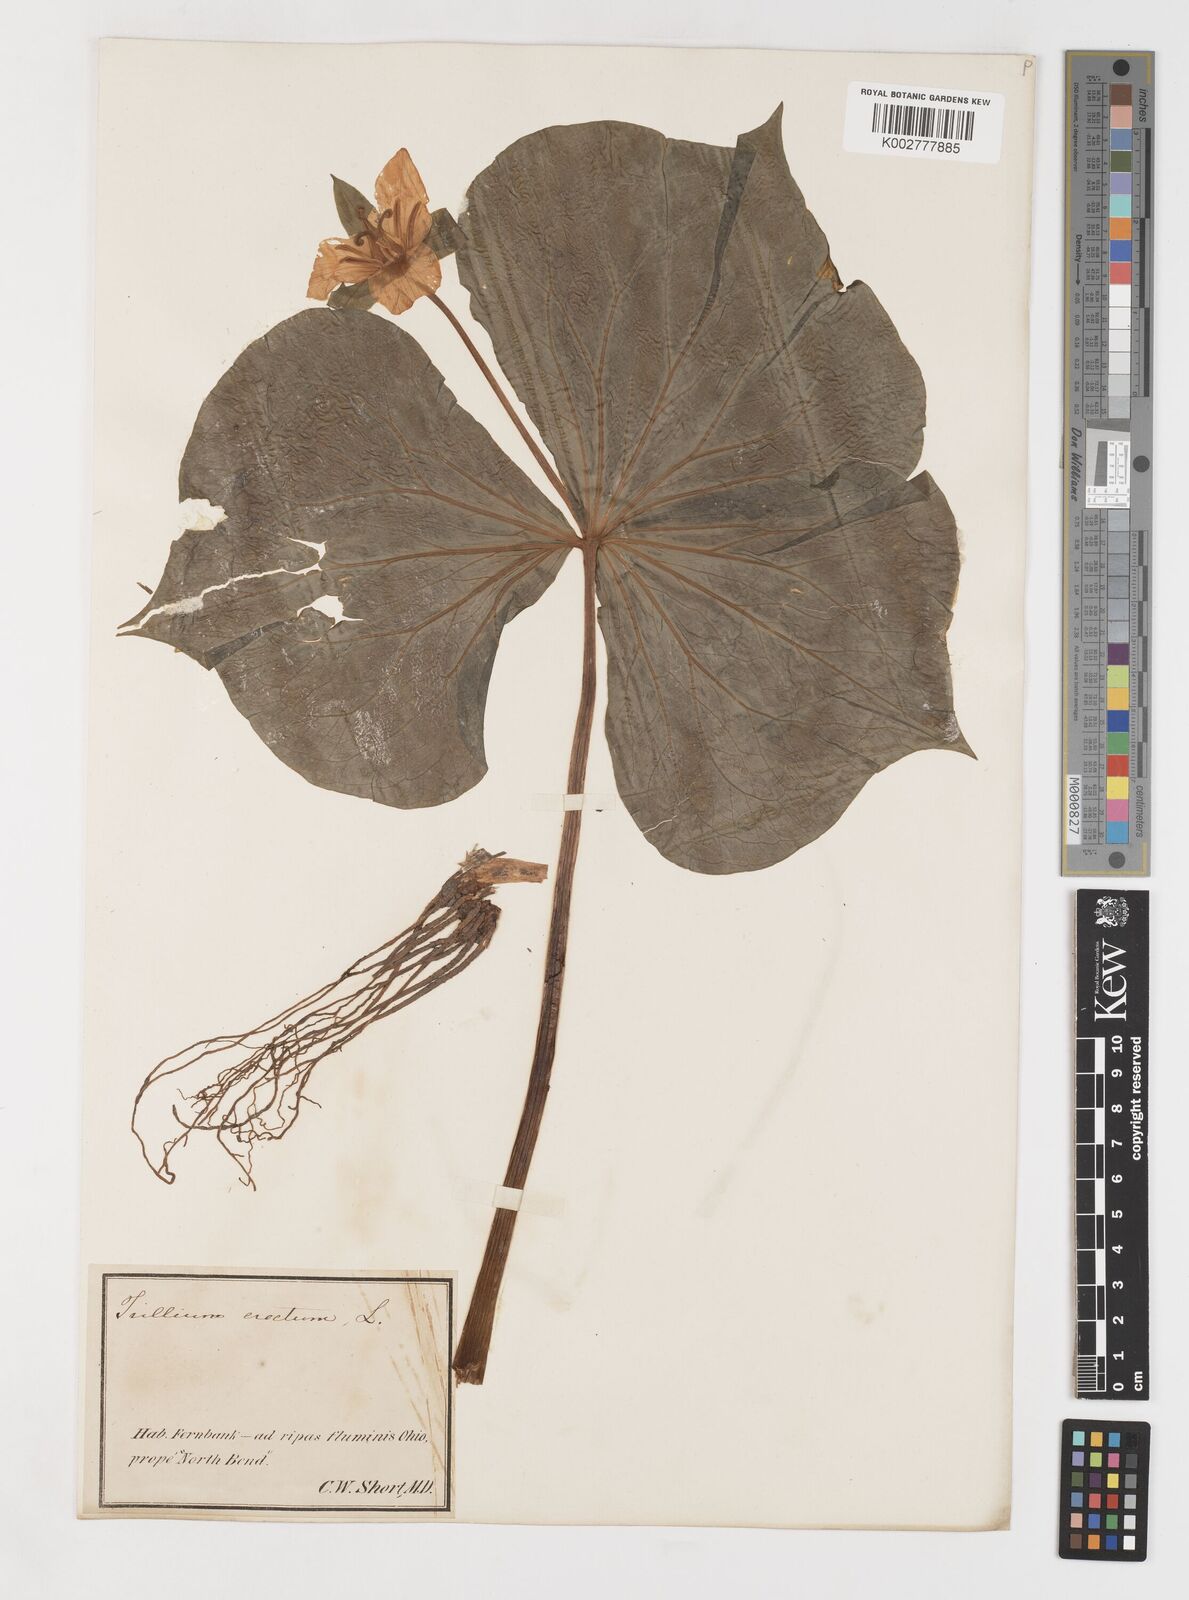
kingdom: Plantae
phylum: Tracheophyta
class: Liliopsida
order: Liliales
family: Melanthiaceae
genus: Trillium
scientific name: Trillium erectum
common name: Purple trillium
